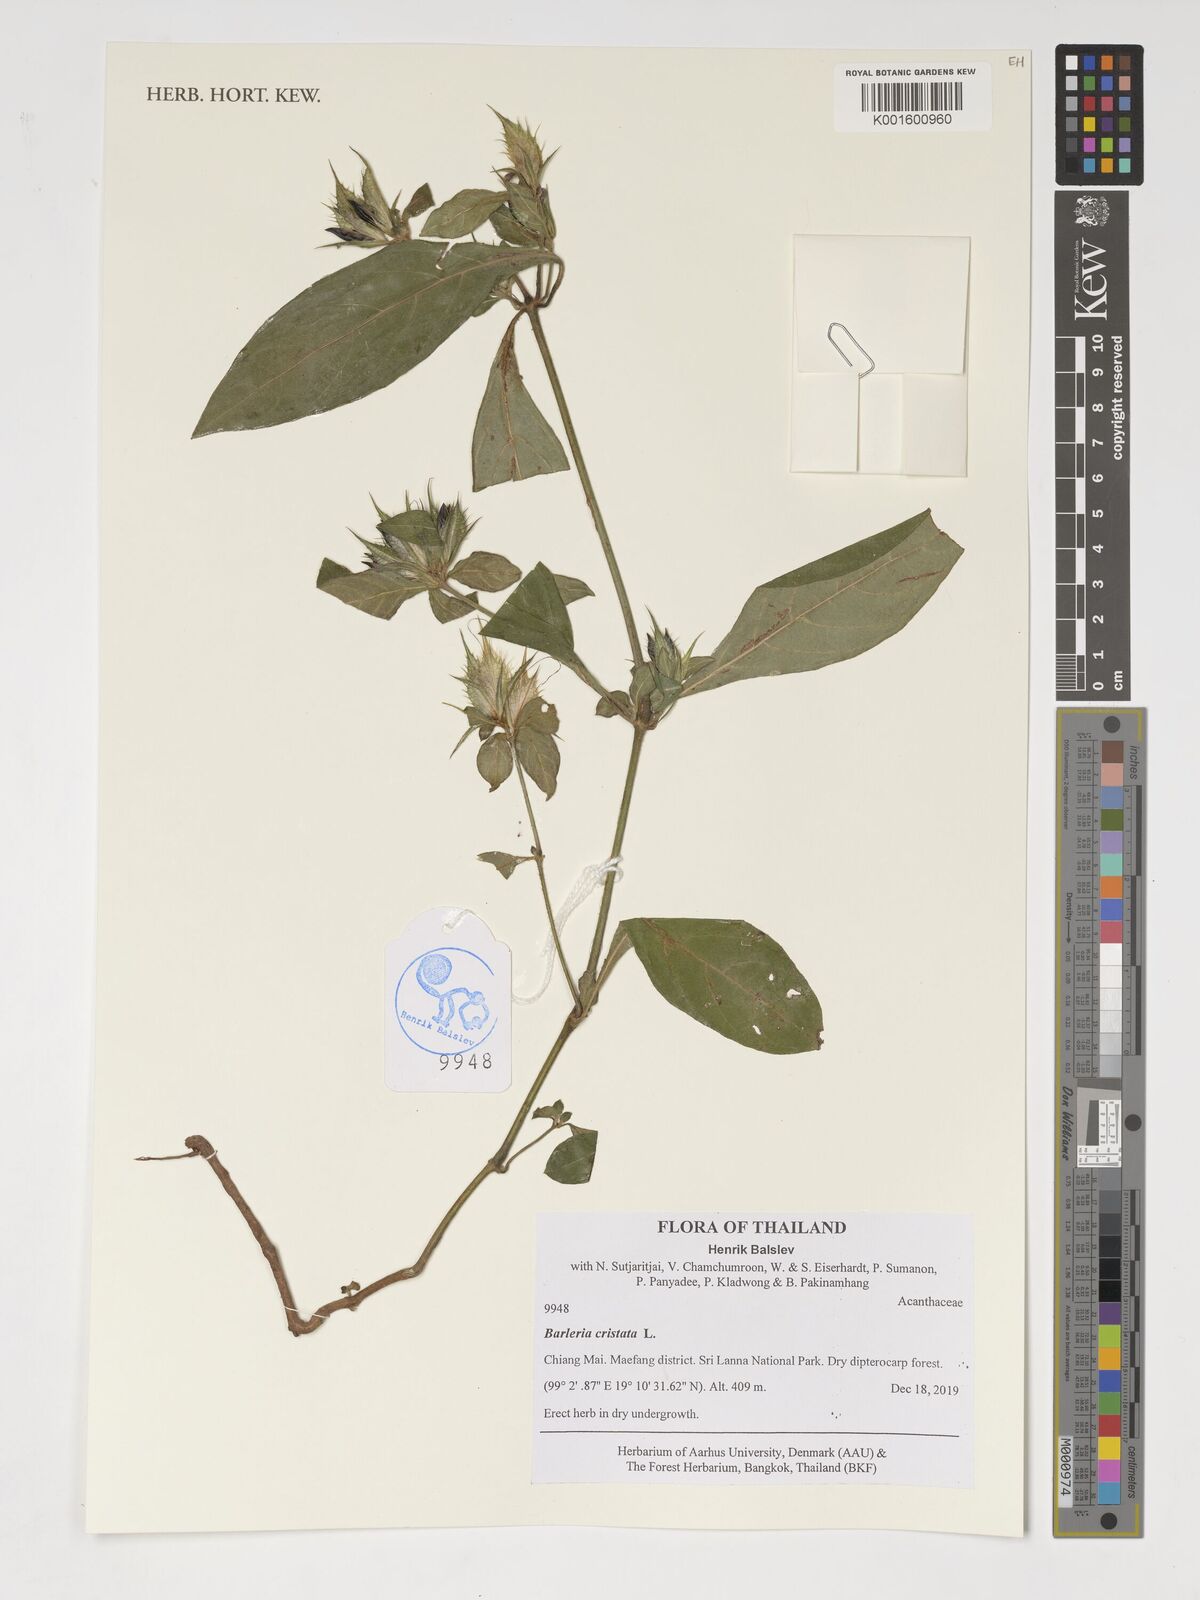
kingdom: Plantae
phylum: Tracheophyta
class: Magnoliopsida
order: Lamiales
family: Acanthaceae
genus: Barleria
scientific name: Barleria cristata
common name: Crested philippine violet
